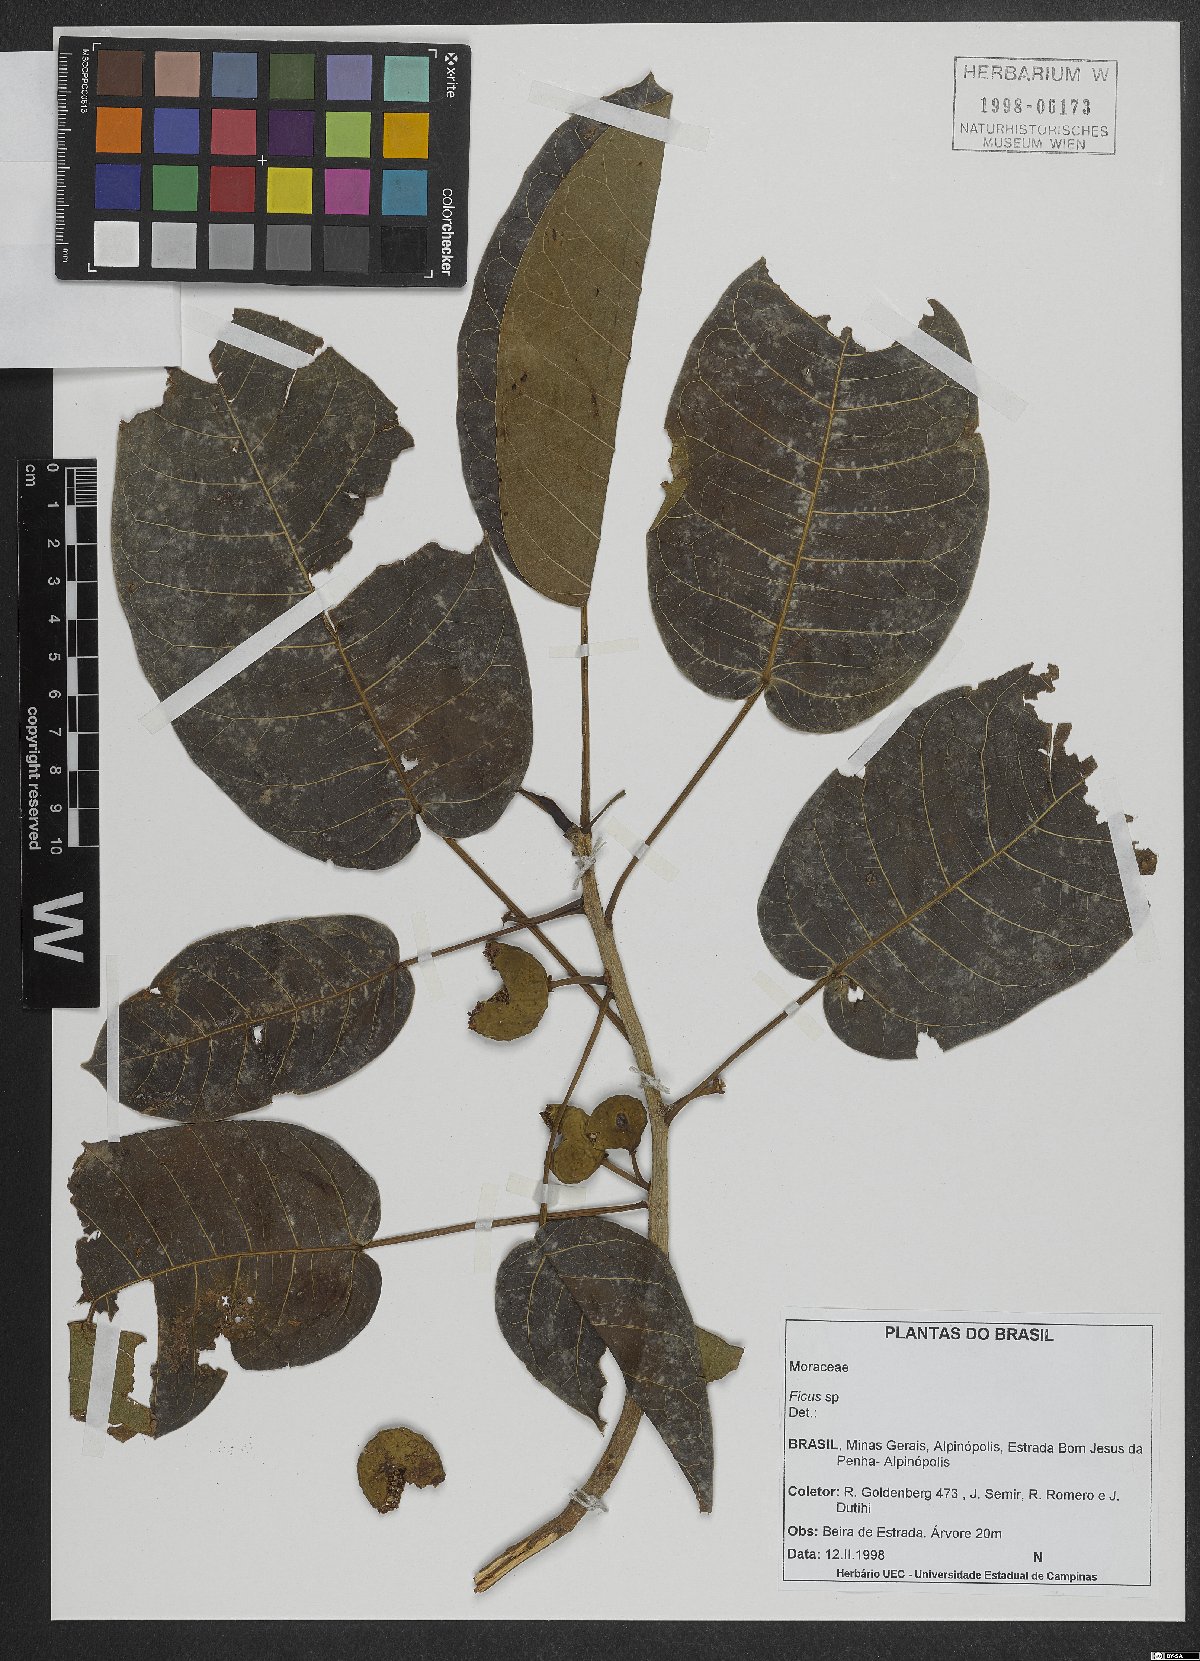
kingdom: Plantae
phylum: Tracheophyta
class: Magnoliopsida
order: Rosales
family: Moraceae
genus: Ficus
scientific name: Ficus
